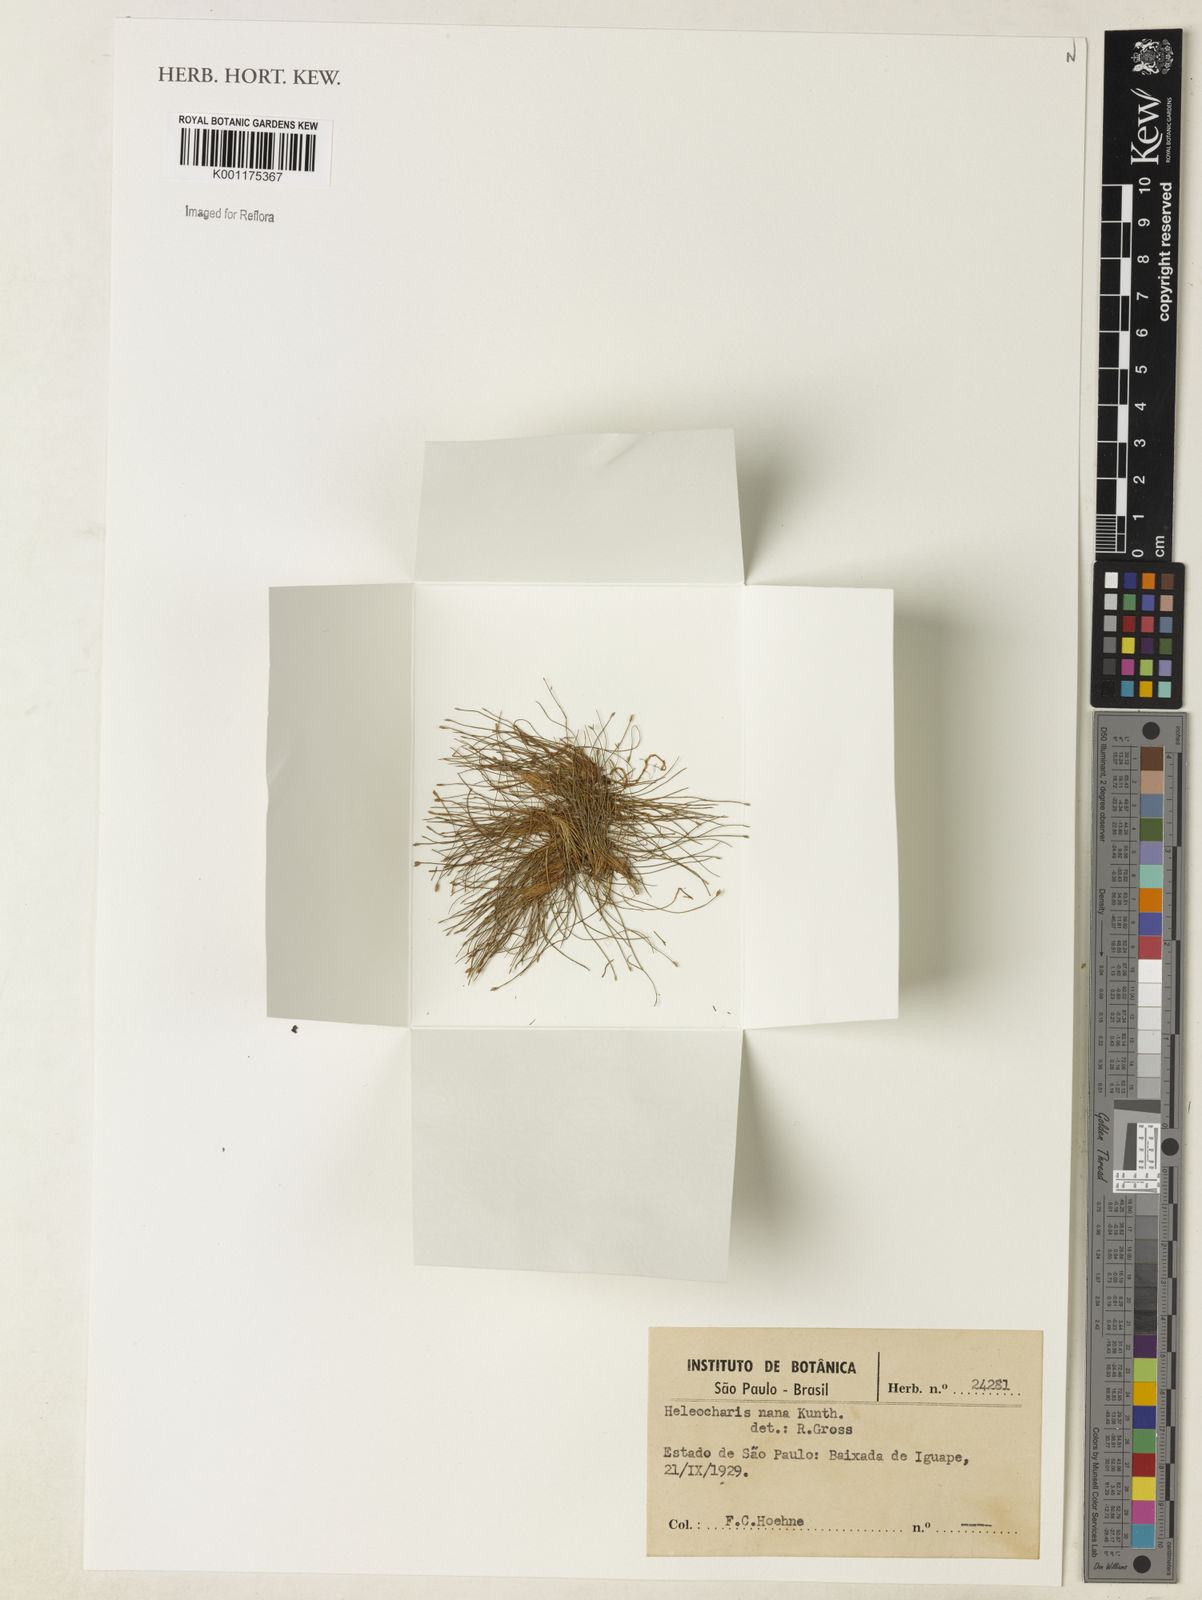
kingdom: Plantae
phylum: Tracheophyta
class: Liliopsida
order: Poales
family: Cyperaceae
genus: Eleocharis
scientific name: Eleocharis nana
